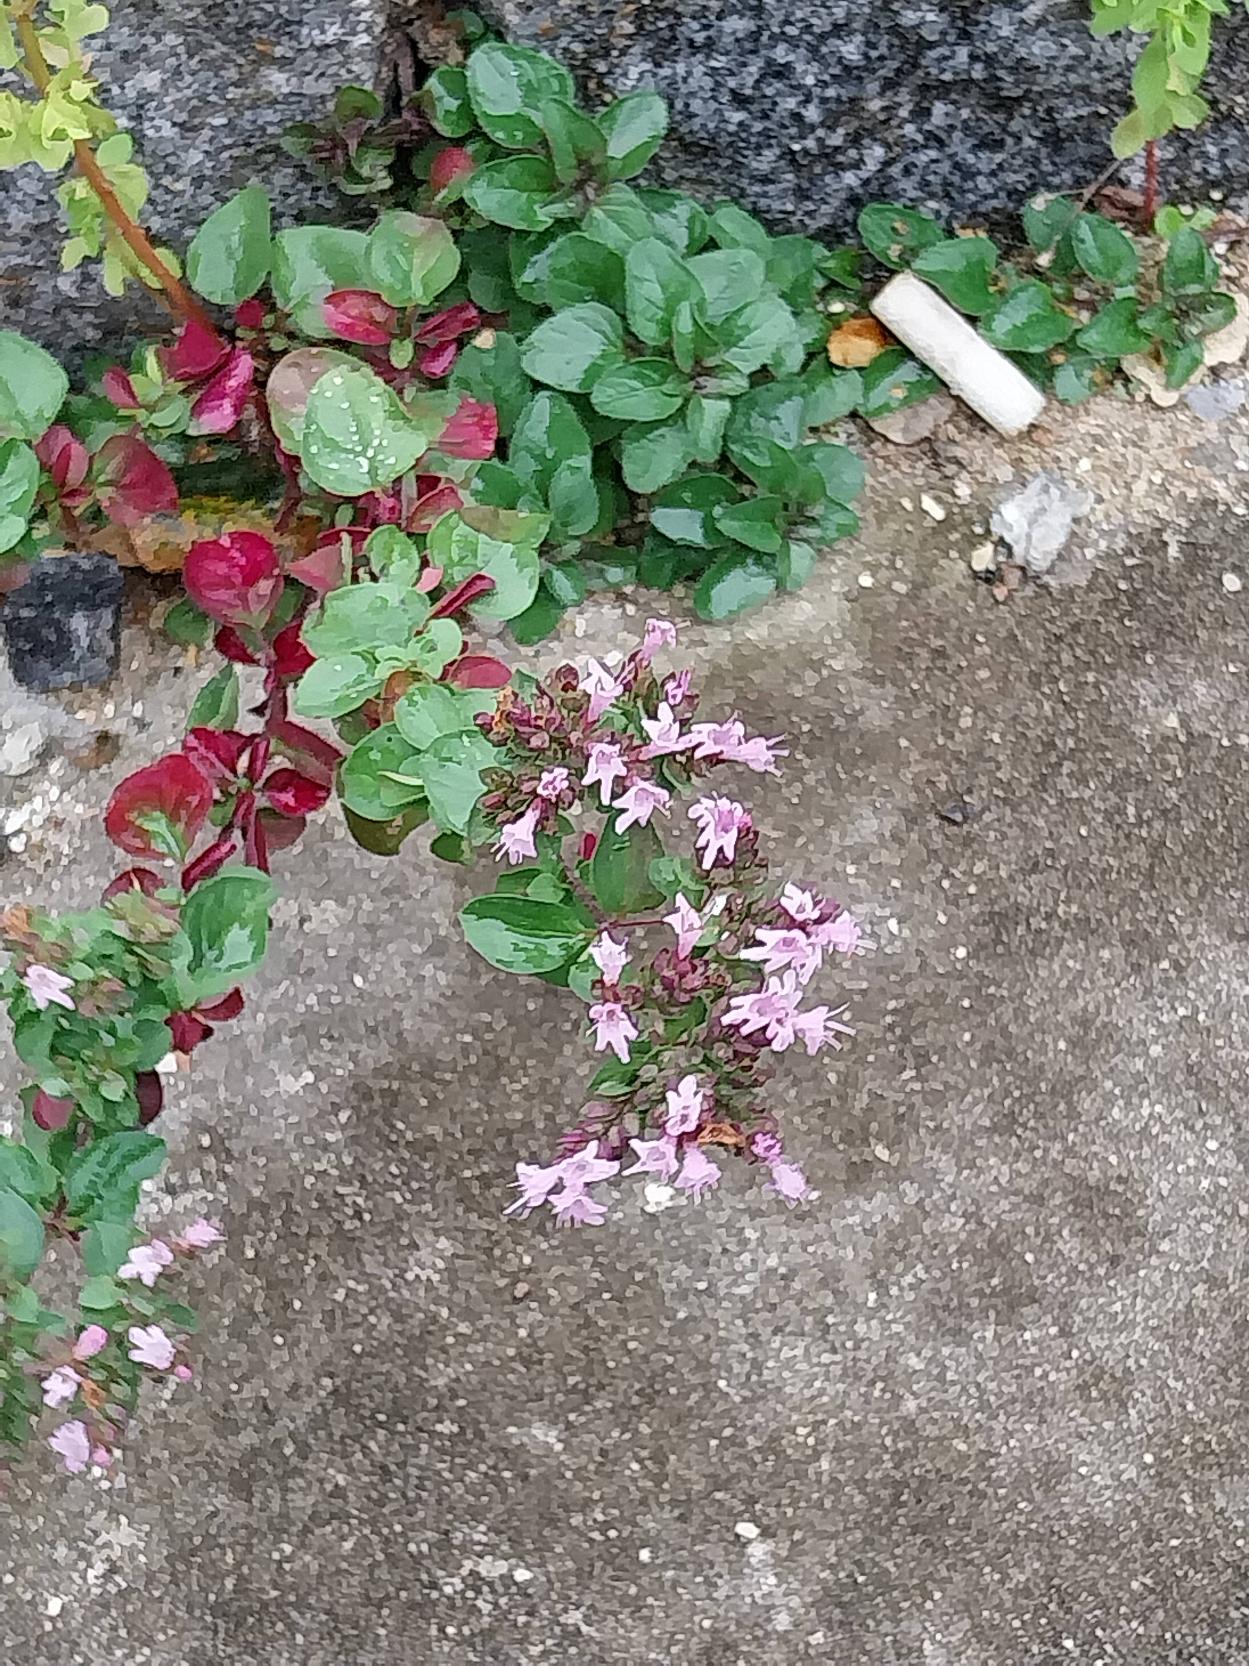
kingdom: Plantae
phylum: Tracheophyta
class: Magnoliopsida
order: Lamiales
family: Lamiaceae
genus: Origanum
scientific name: Origanum vulgare
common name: Merian
